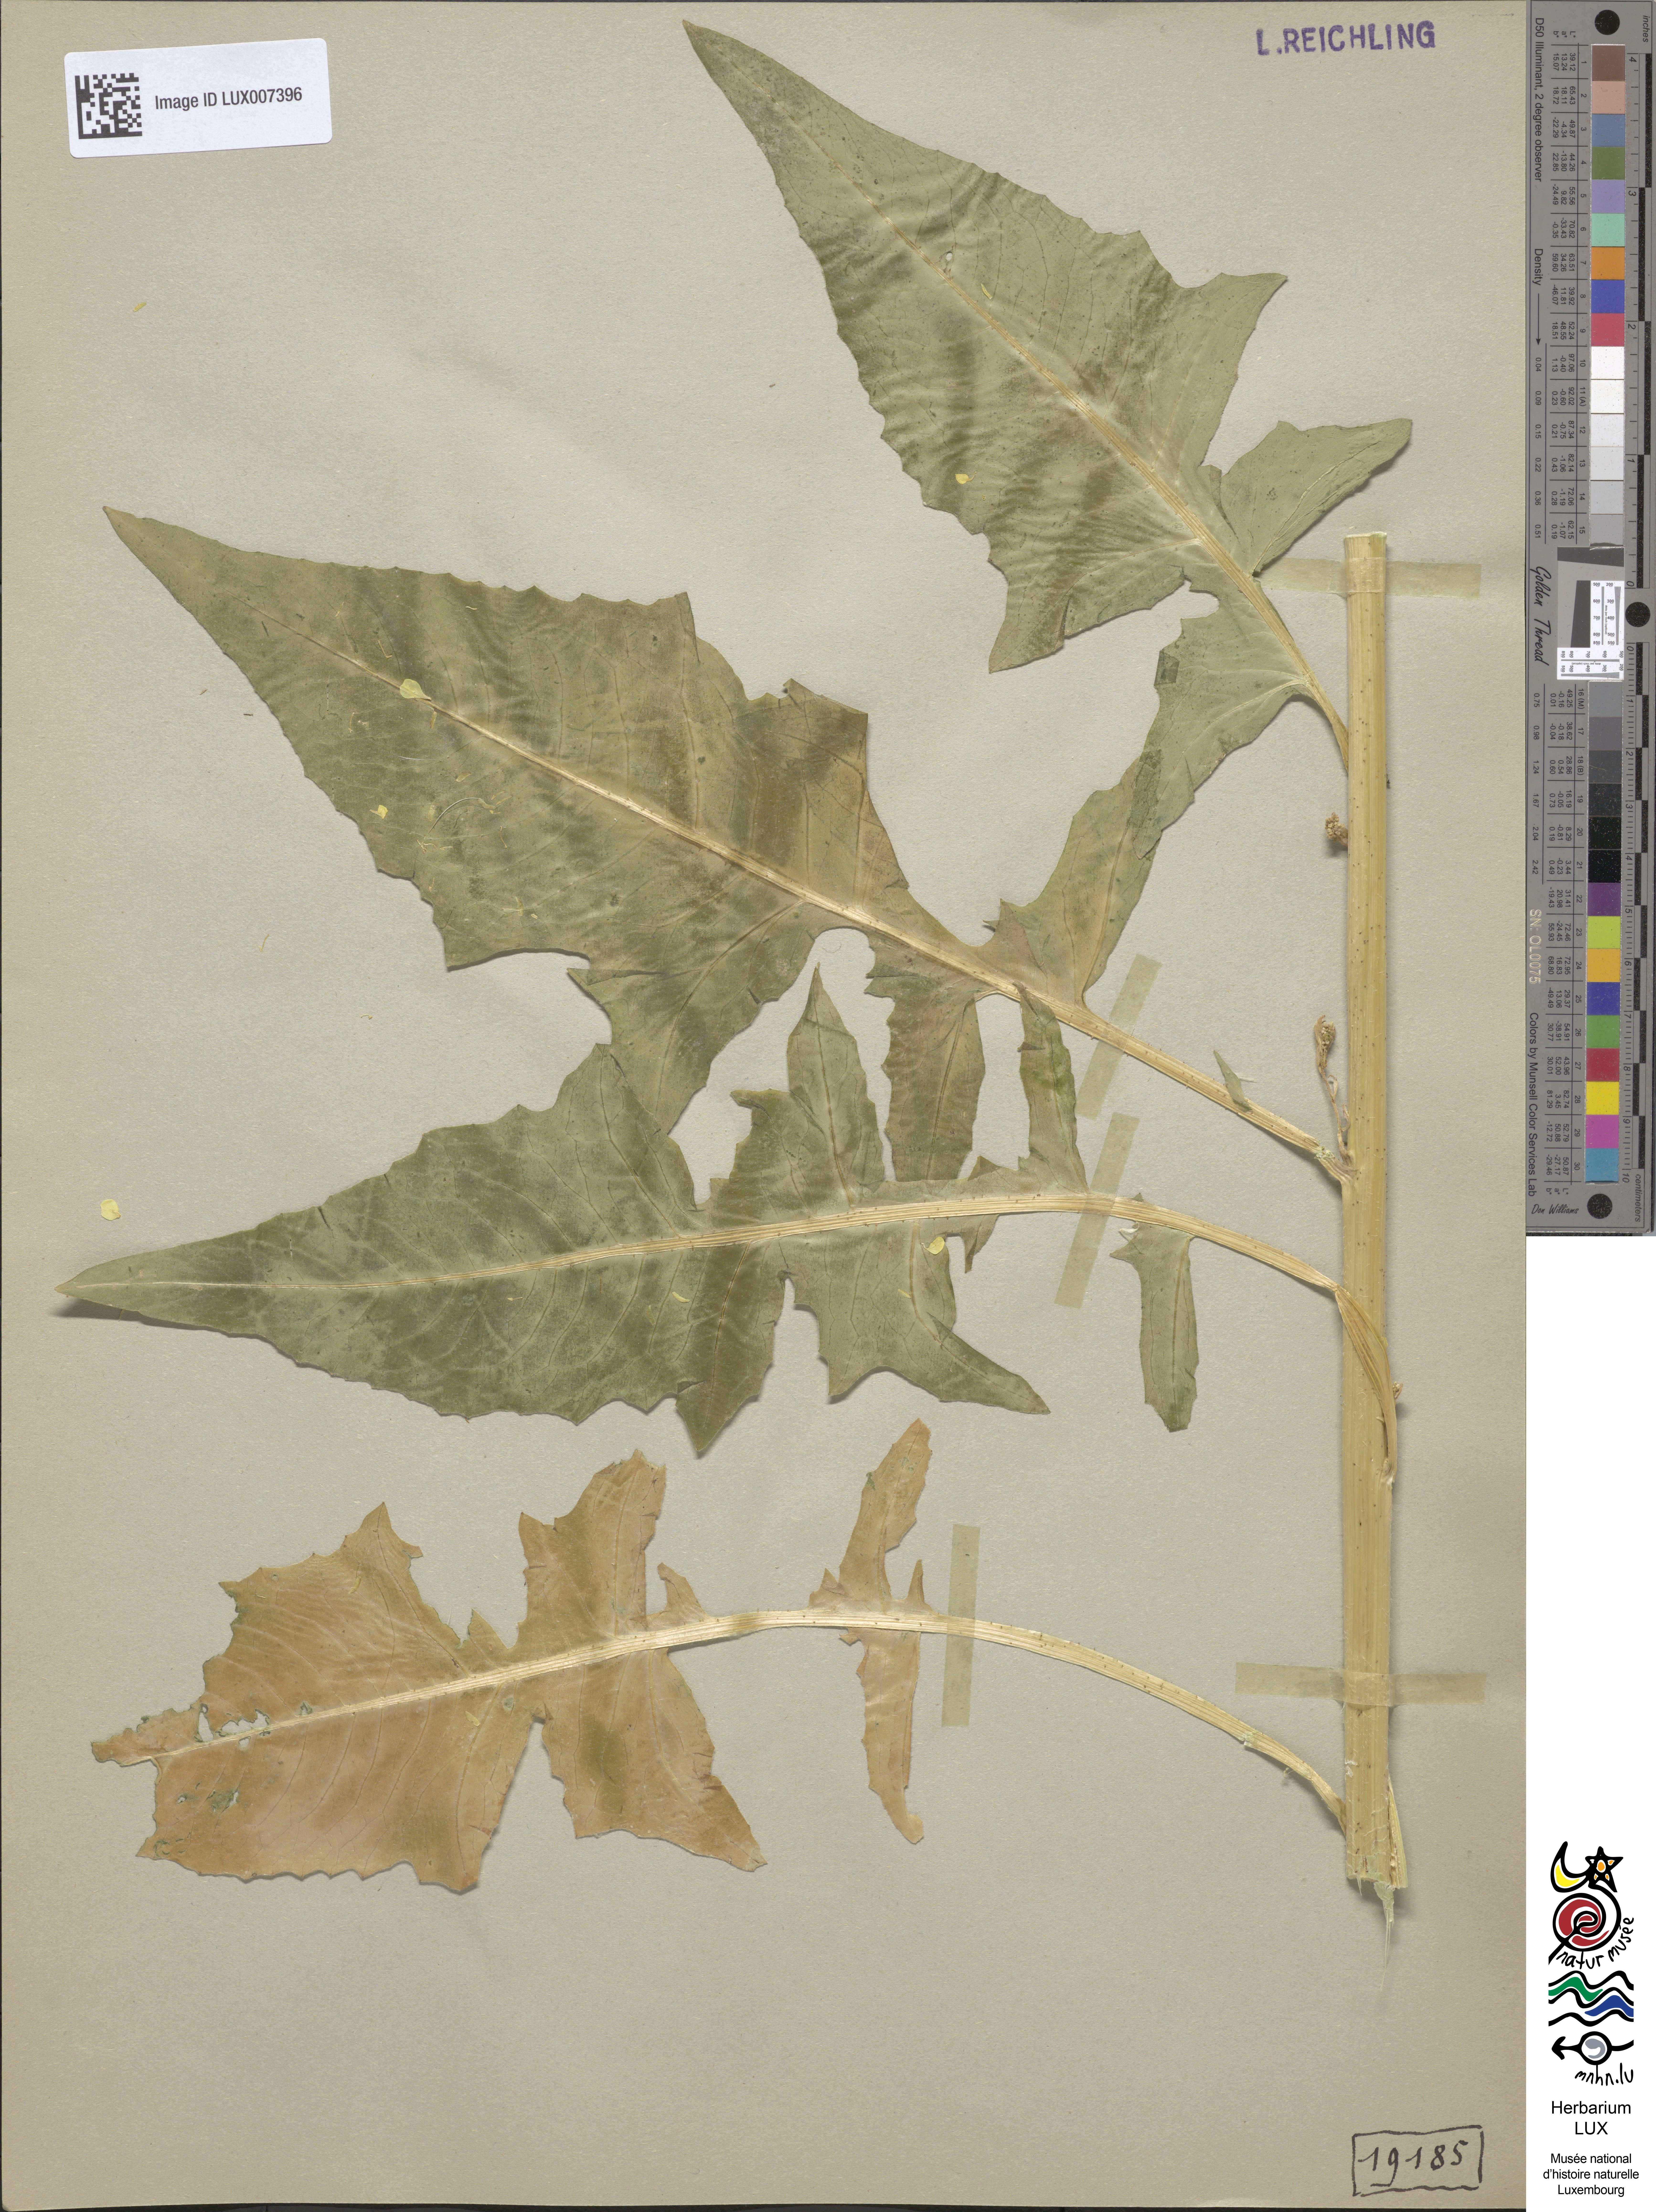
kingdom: Plantae
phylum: Tracheophyta
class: Magnoliopsida
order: Brassicales
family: Brassicaceae
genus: Bunias
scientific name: Bunias orientalis
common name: Warty-cabbage
